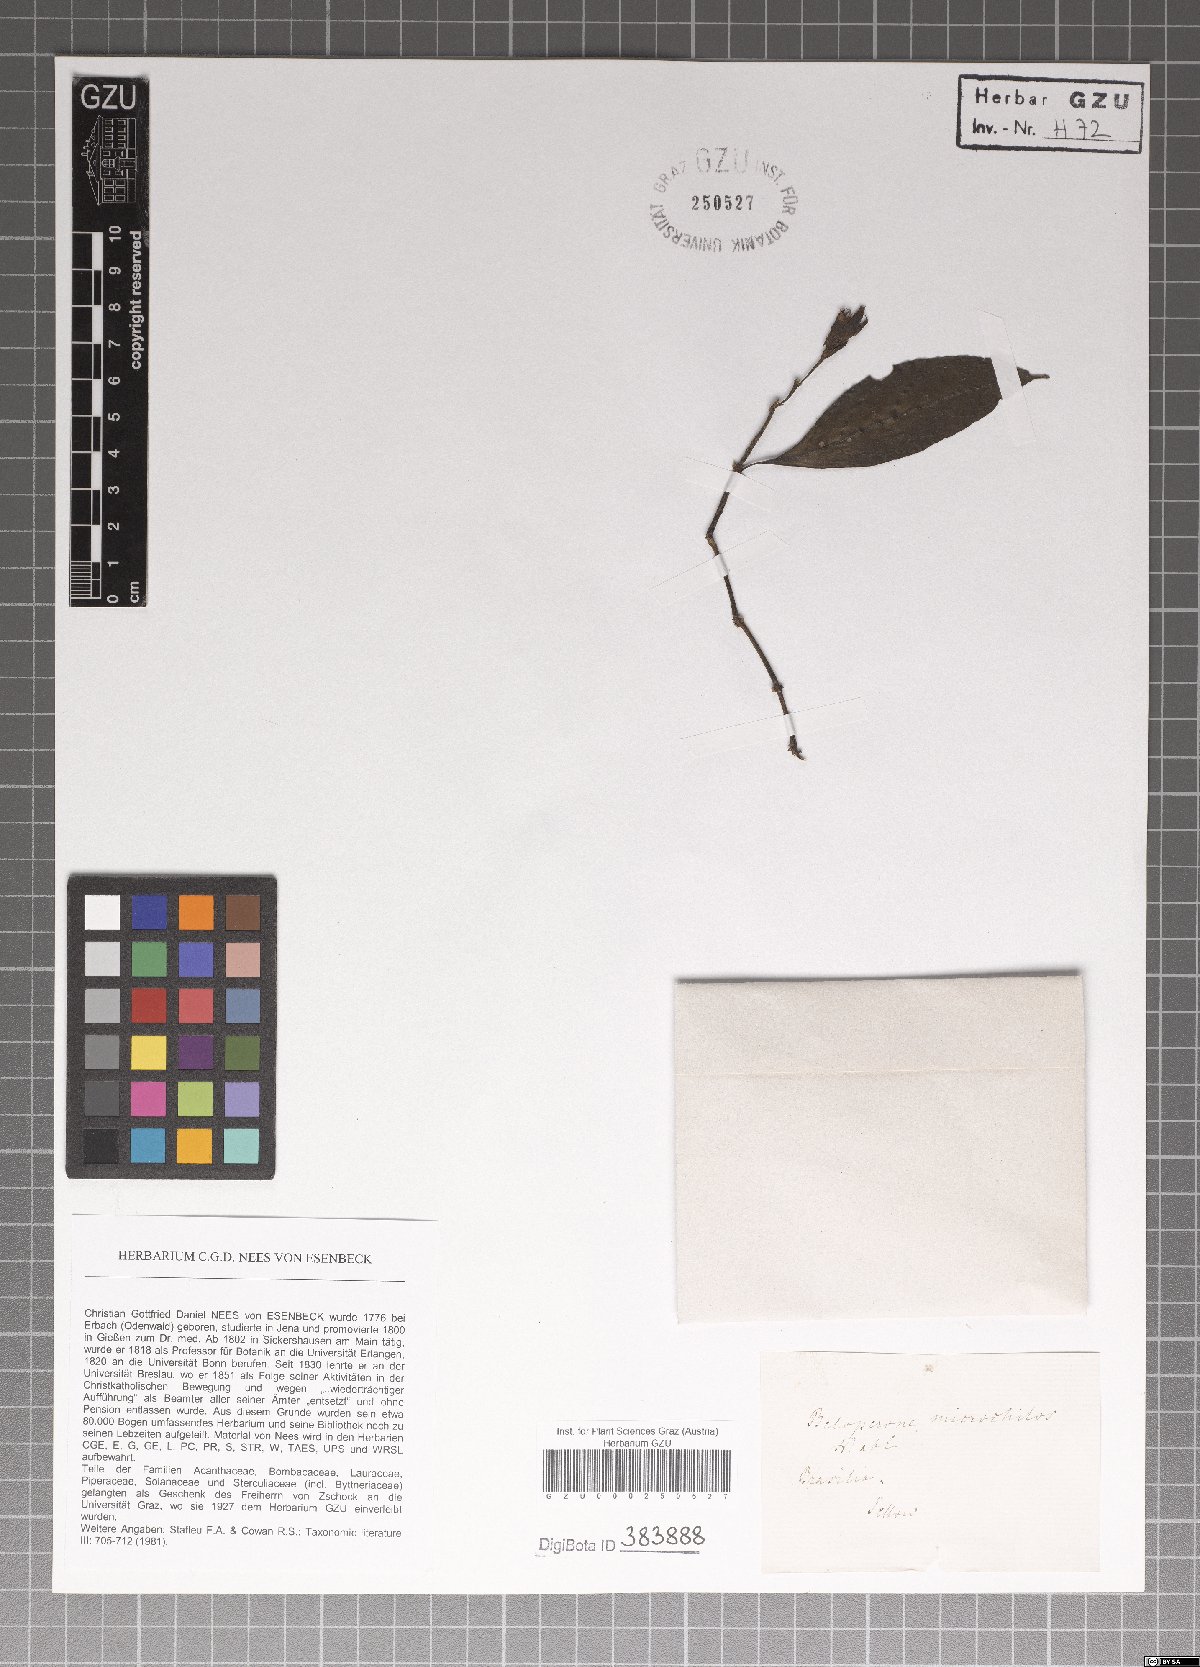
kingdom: Plantae
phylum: Tracheophyta
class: Magnoliopsida
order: Lamiales
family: Acanthaceae
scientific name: Acanthaceae
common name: Acanthaceae
